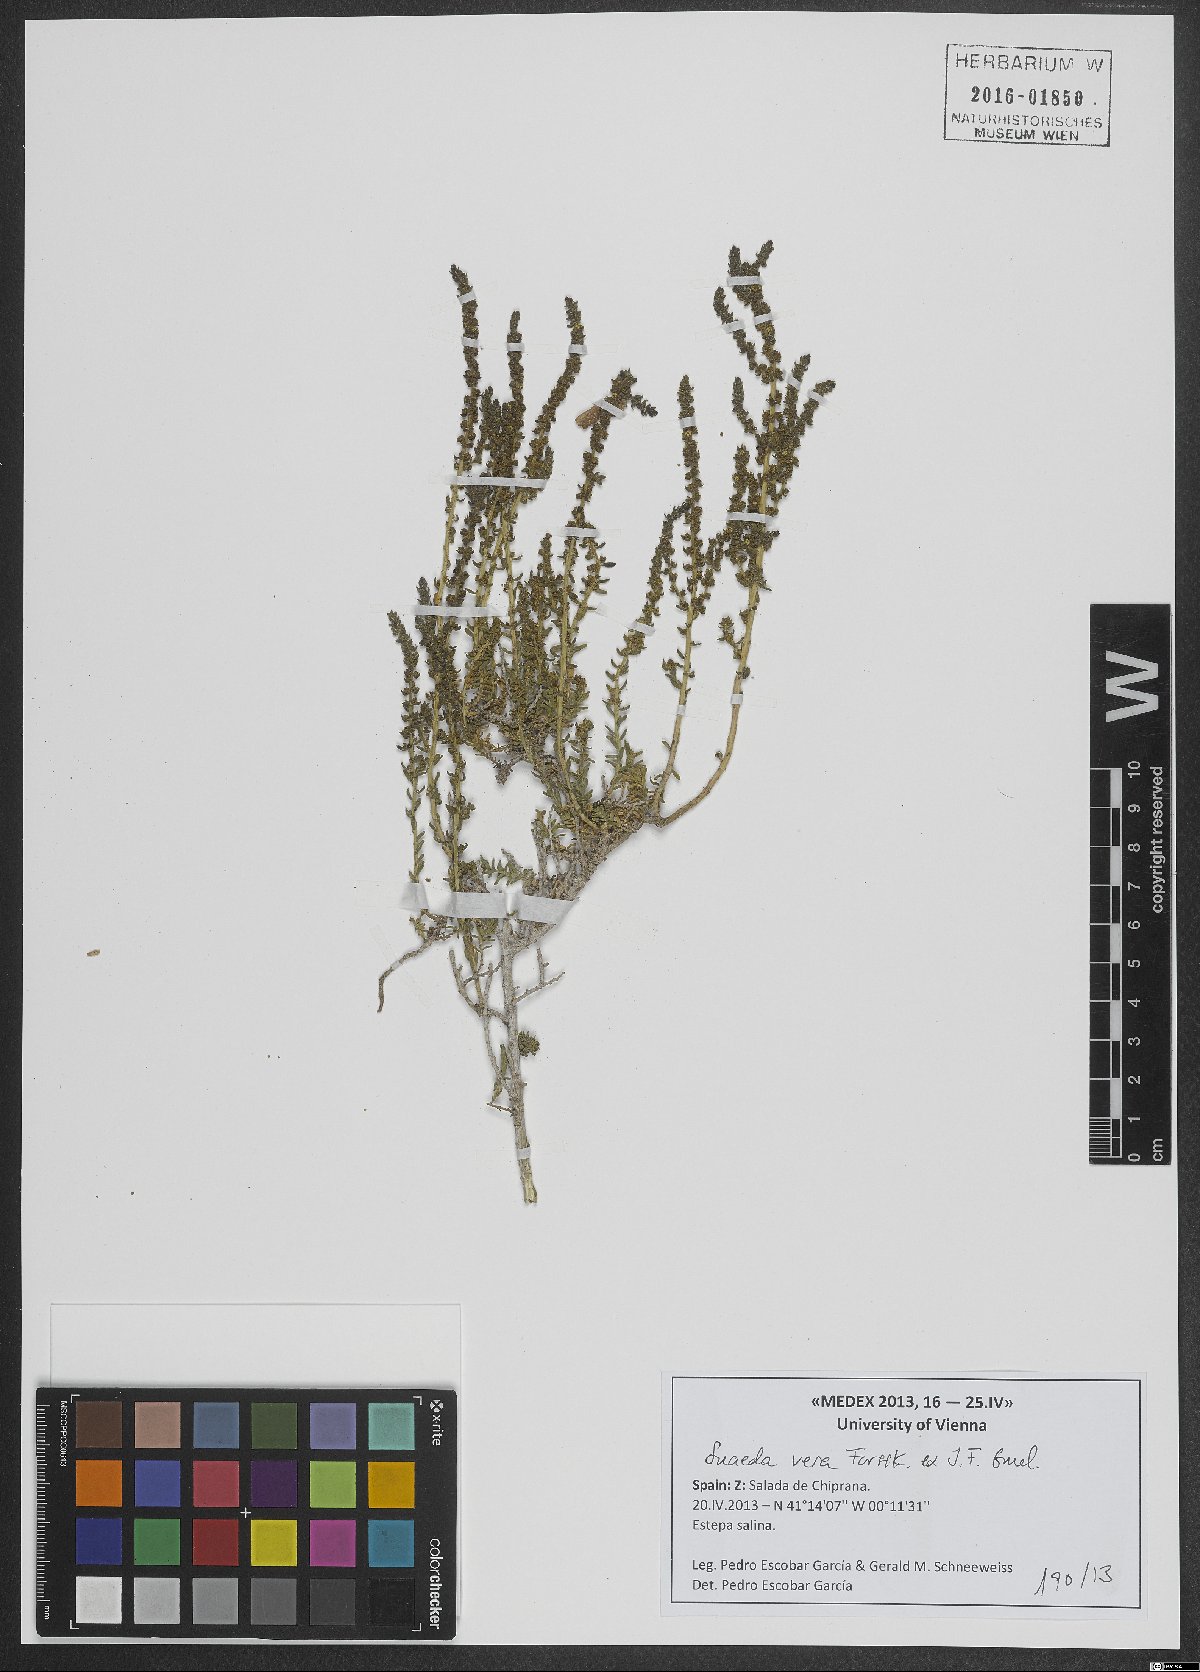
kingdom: Plantae
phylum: Tracheophyta
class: Magnoliopsida
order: Caryophyllales
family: Amaranthaceae
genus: Suaeda
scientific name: Suaeda vera
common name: Shrubby sea-blite
